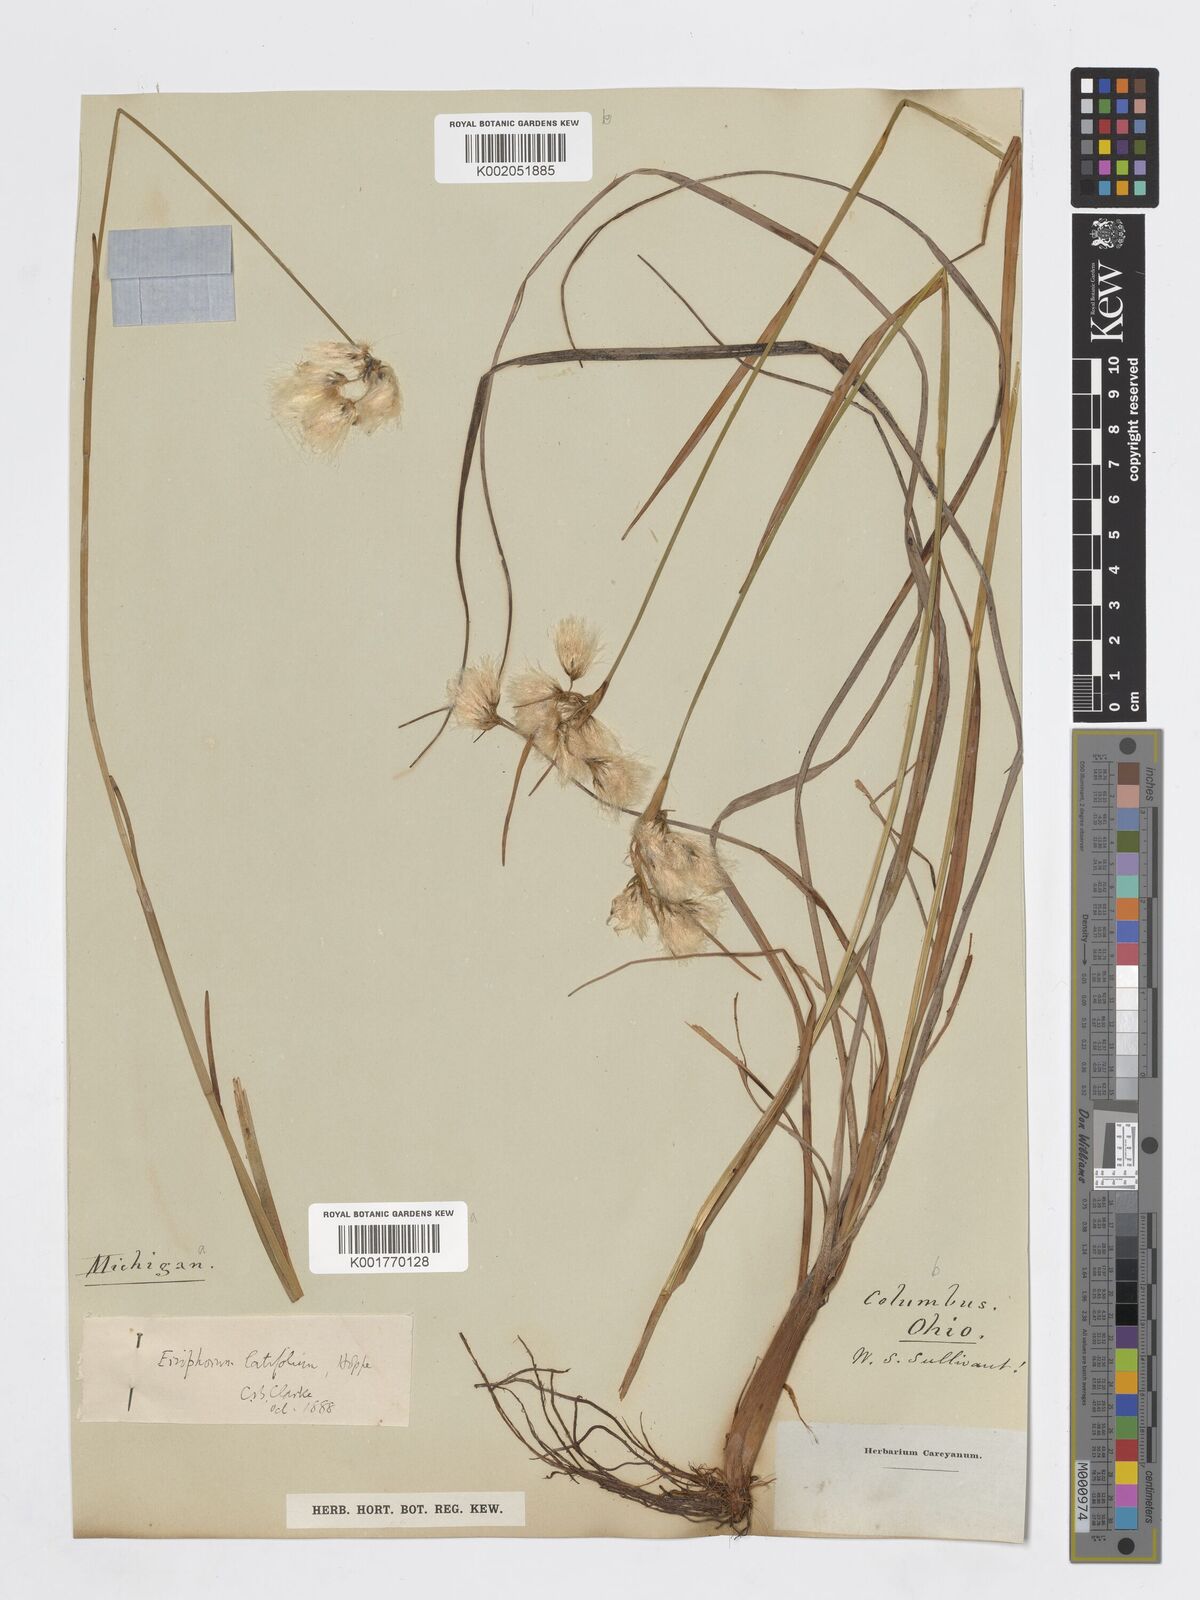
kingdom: Plantae
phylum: Tracheophyta
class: Liliopsida
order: Poales
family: Cyperaceae
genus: Eriophorum
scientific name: Eriophorum latifolium
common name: Broad-leaved cottongrass
